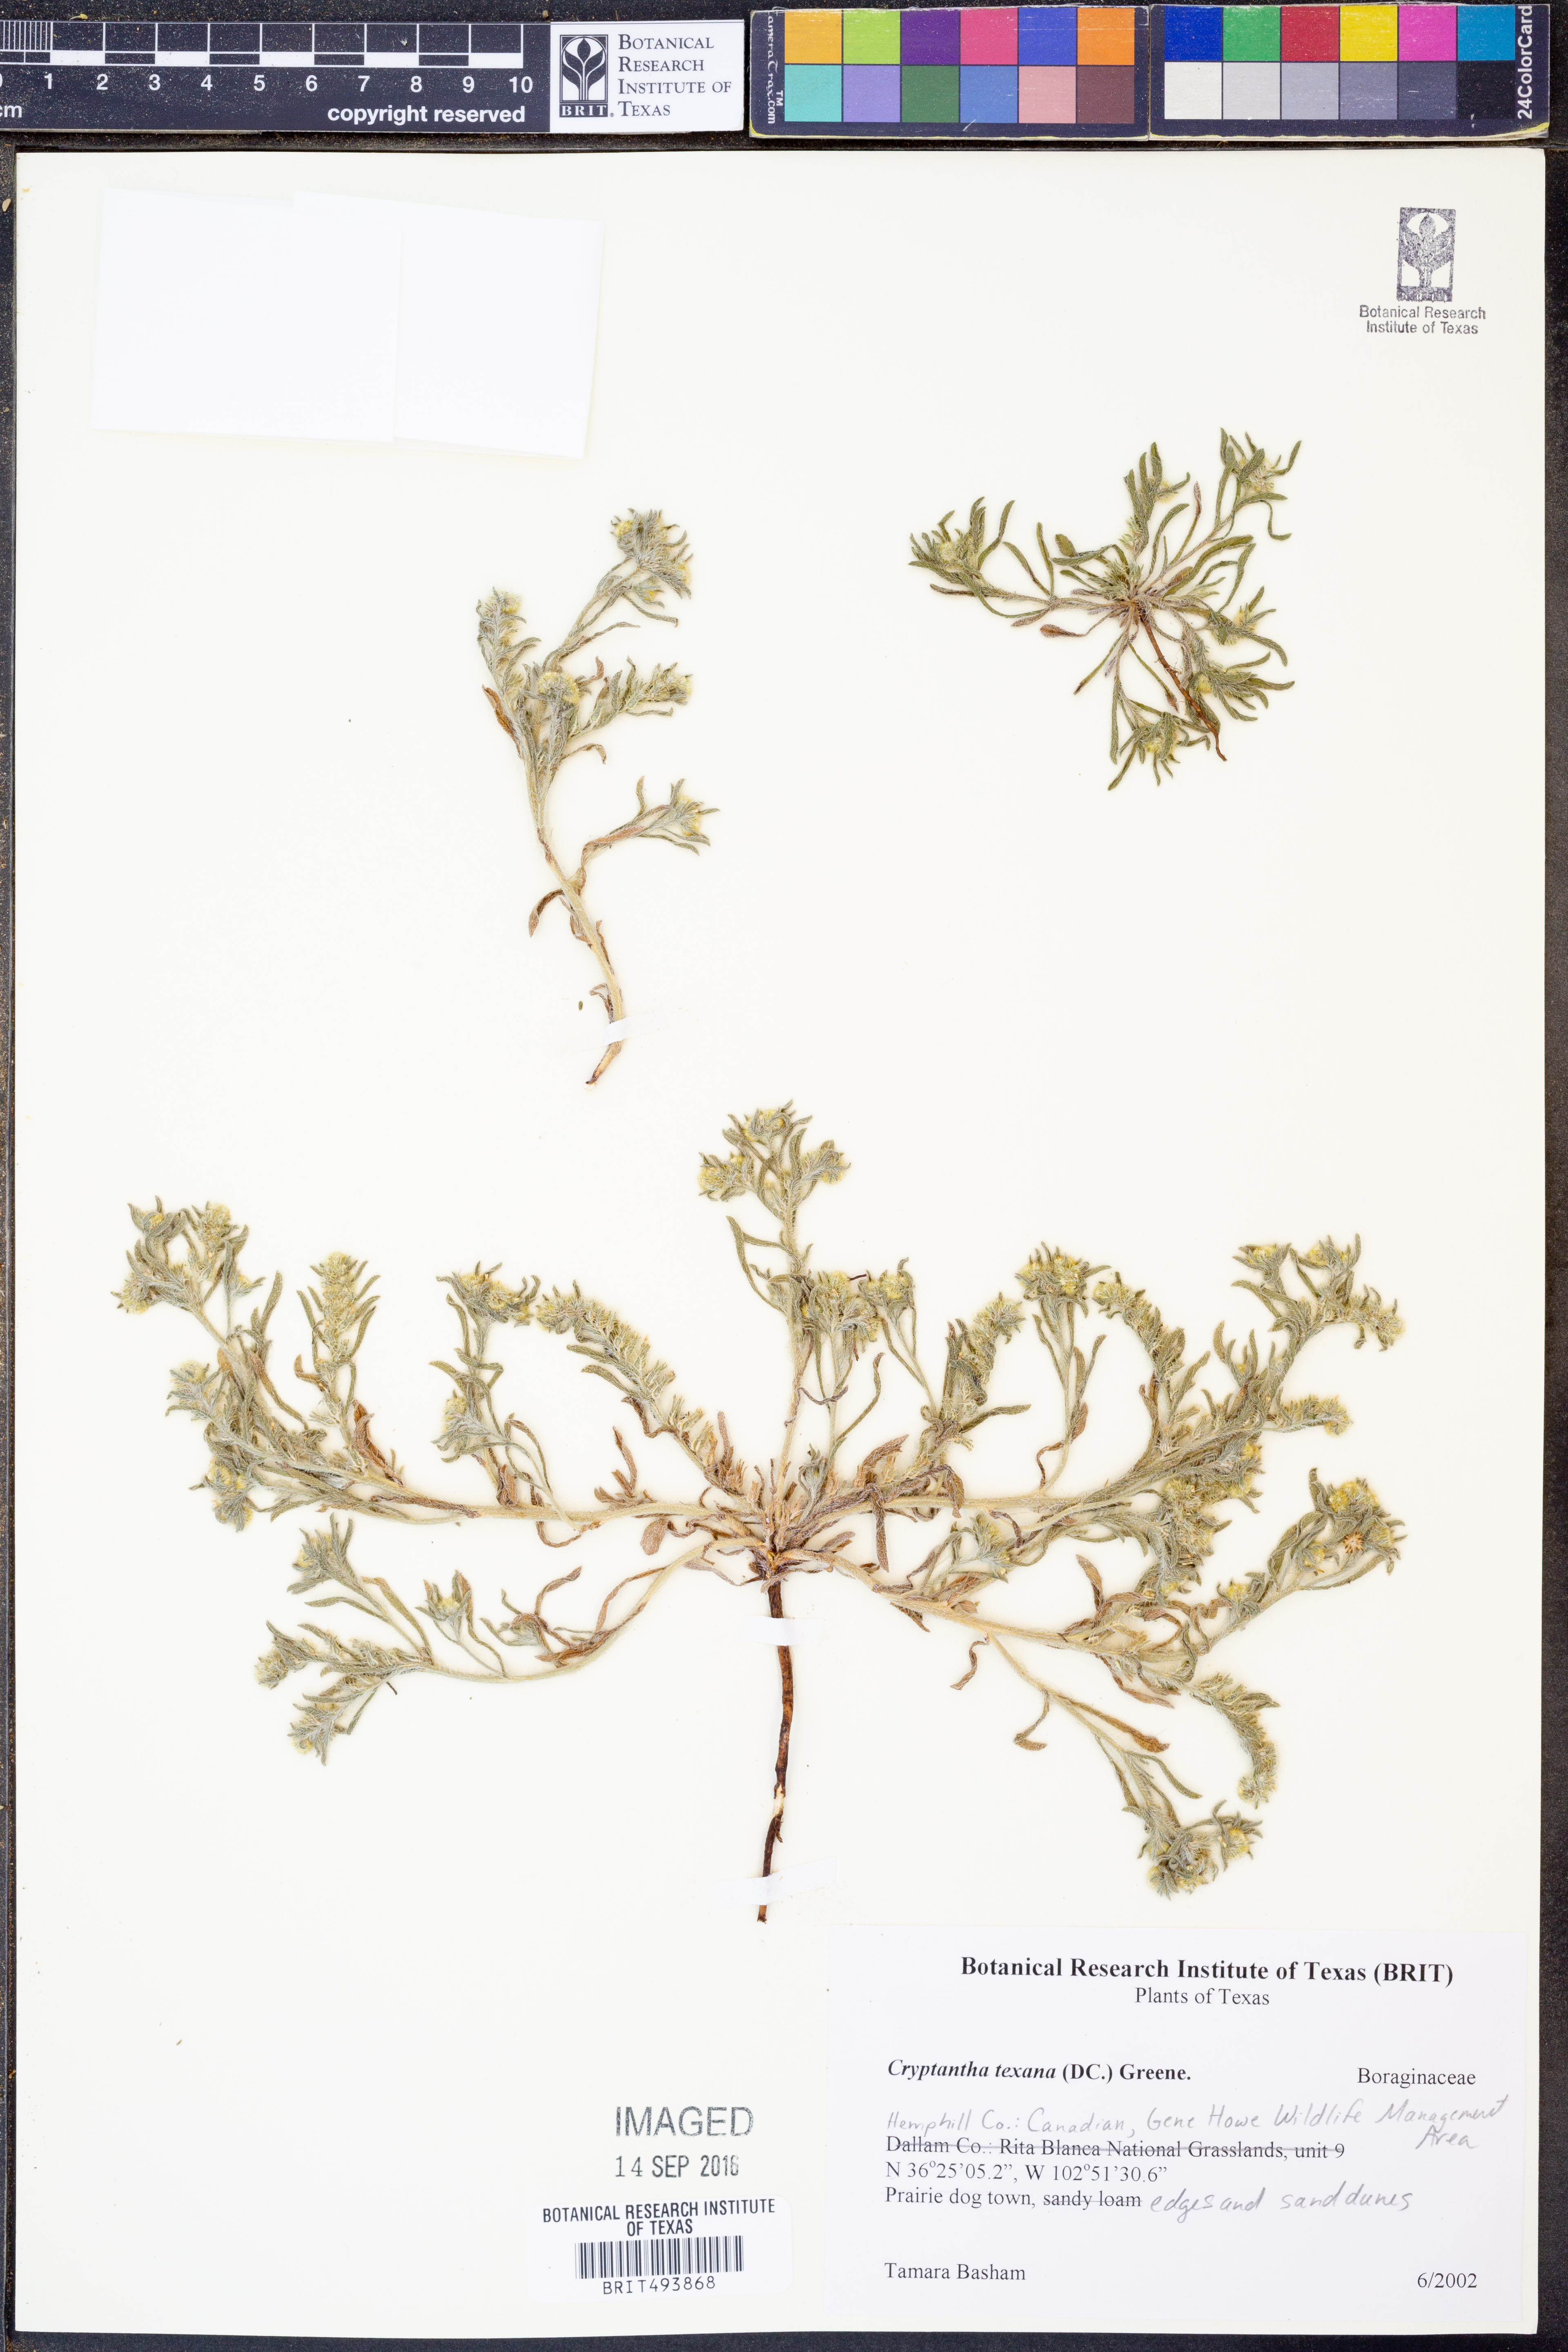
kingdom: Plantae
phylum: Tracheophyta
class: Magnoliopsida
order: Boraginales
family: Boraginaceae
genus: Cryptantha
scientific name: Cryptantha texana
